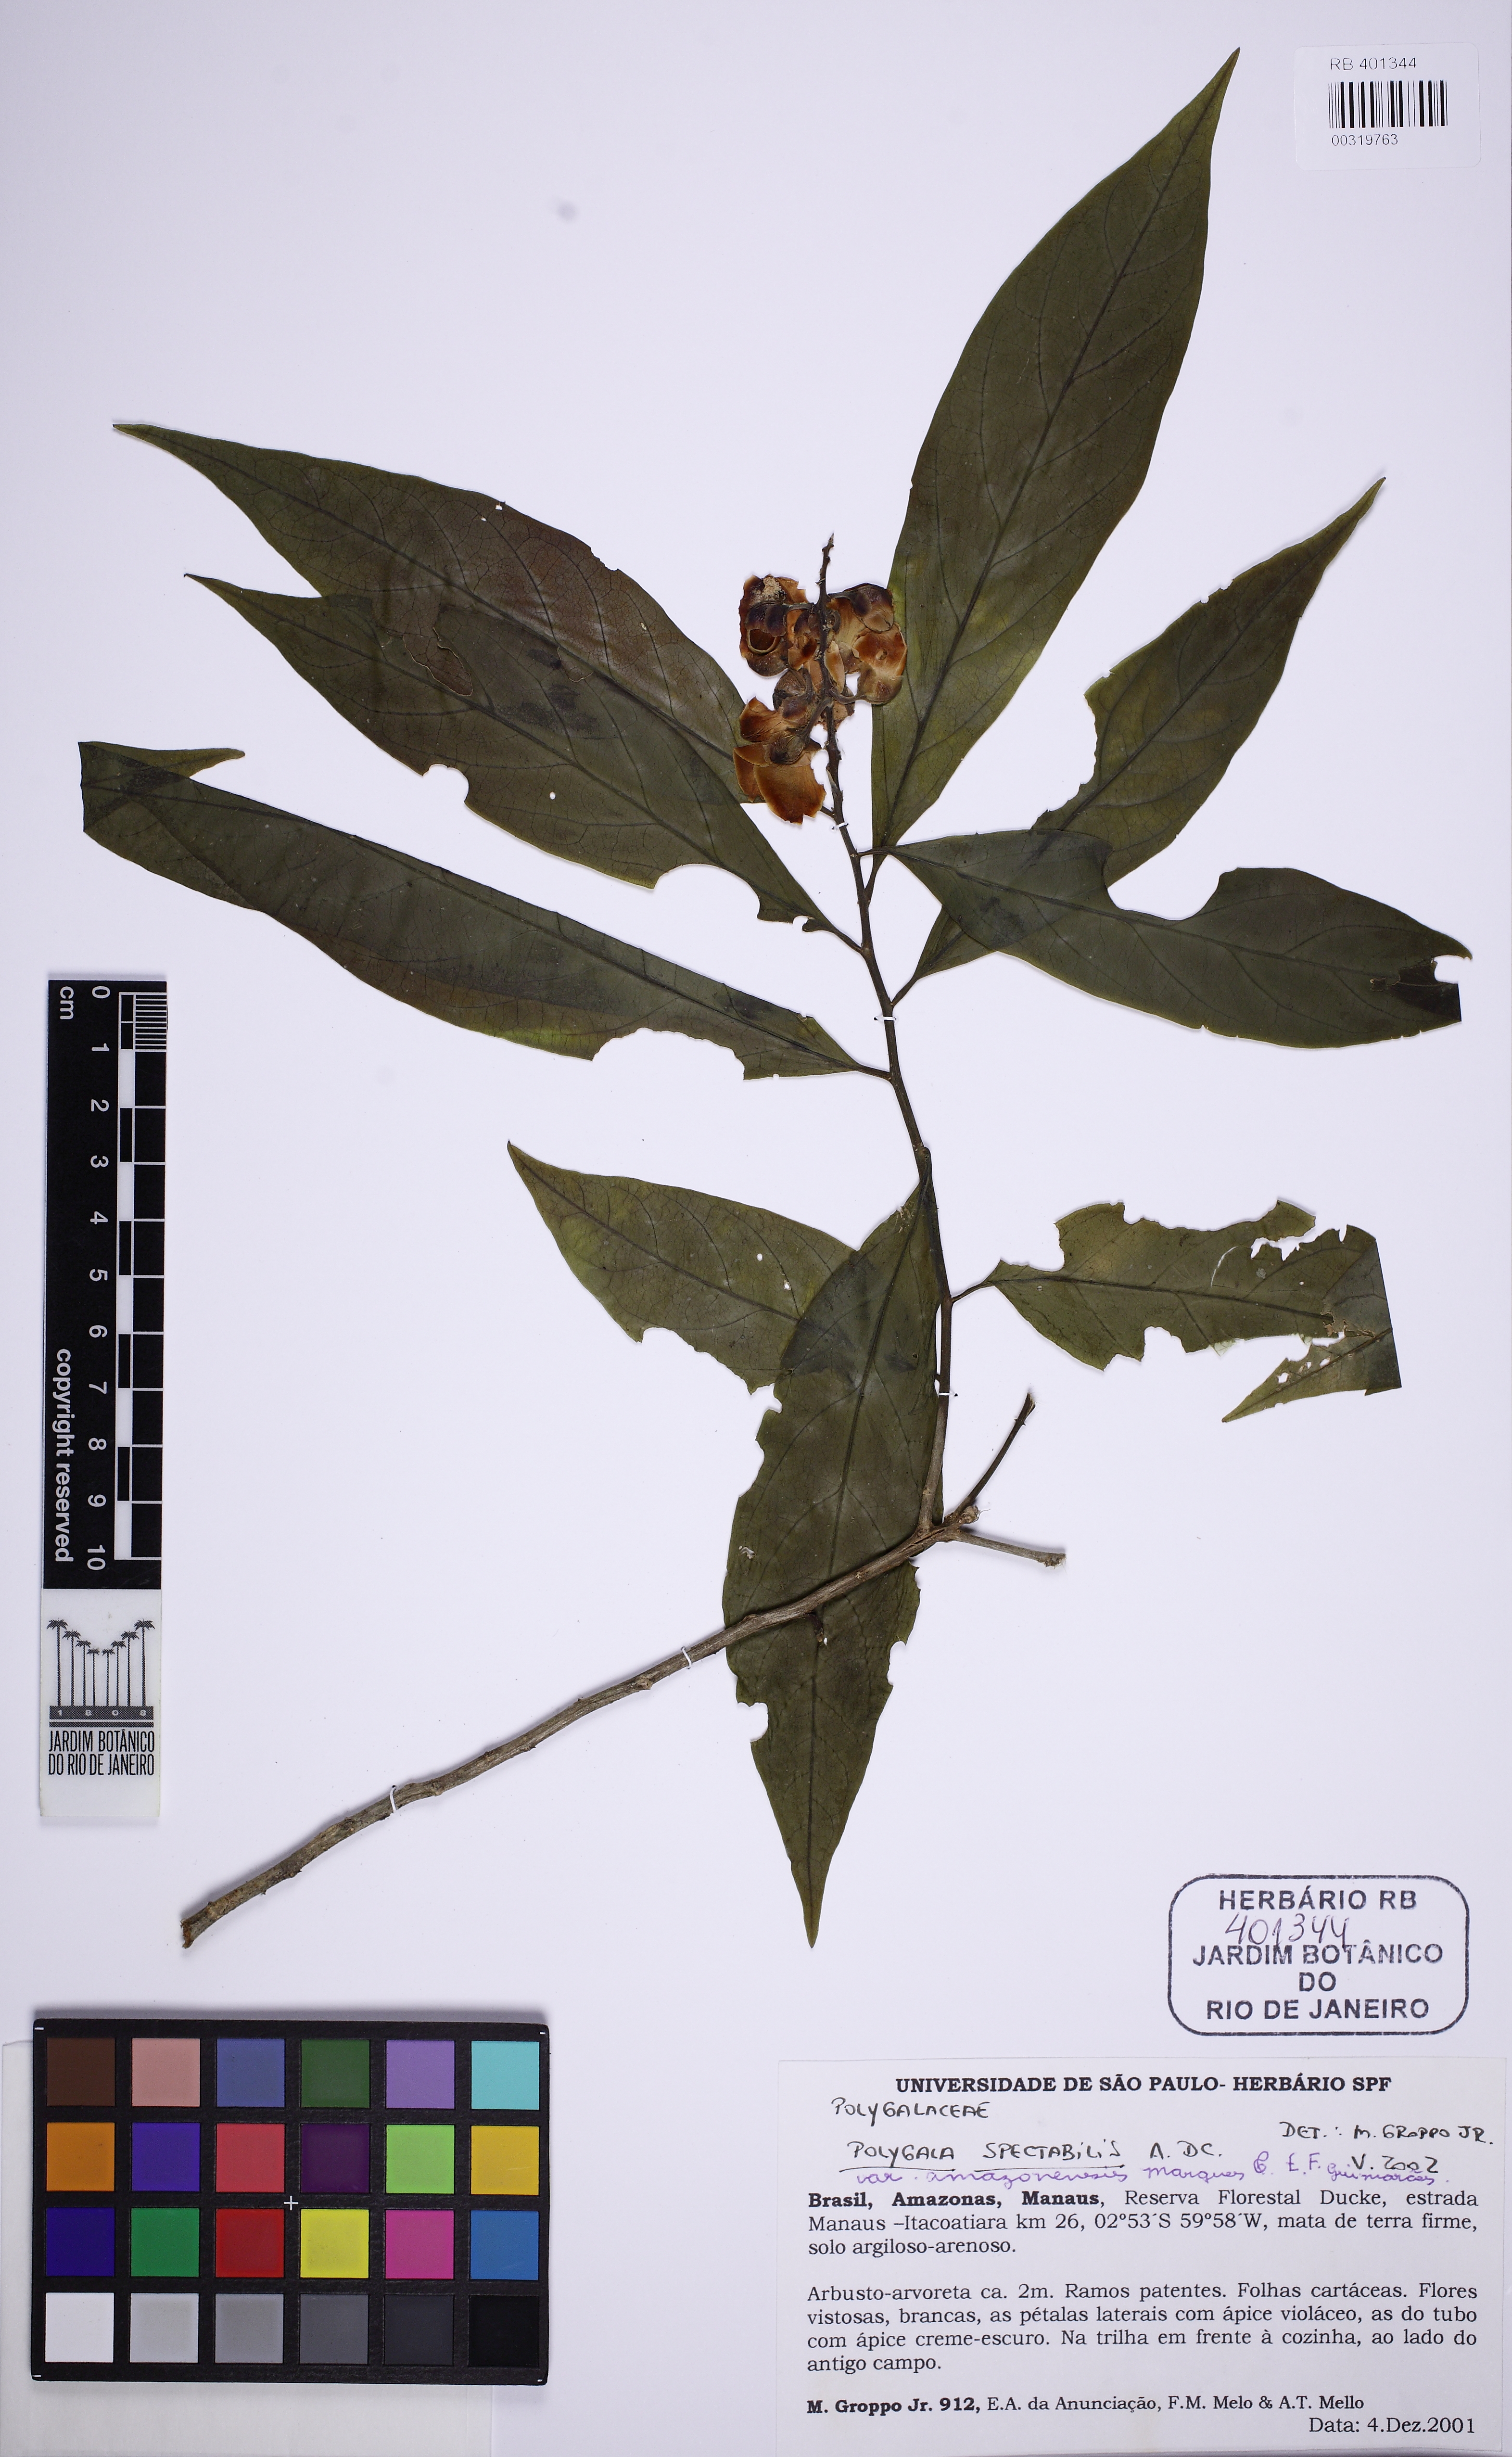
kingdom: Plantae
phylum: Tracheophyta
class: Magnoliopsida
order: Fabales
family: Polygalaceae
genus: Caamembeca
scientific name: Caamembeca amazonensis
